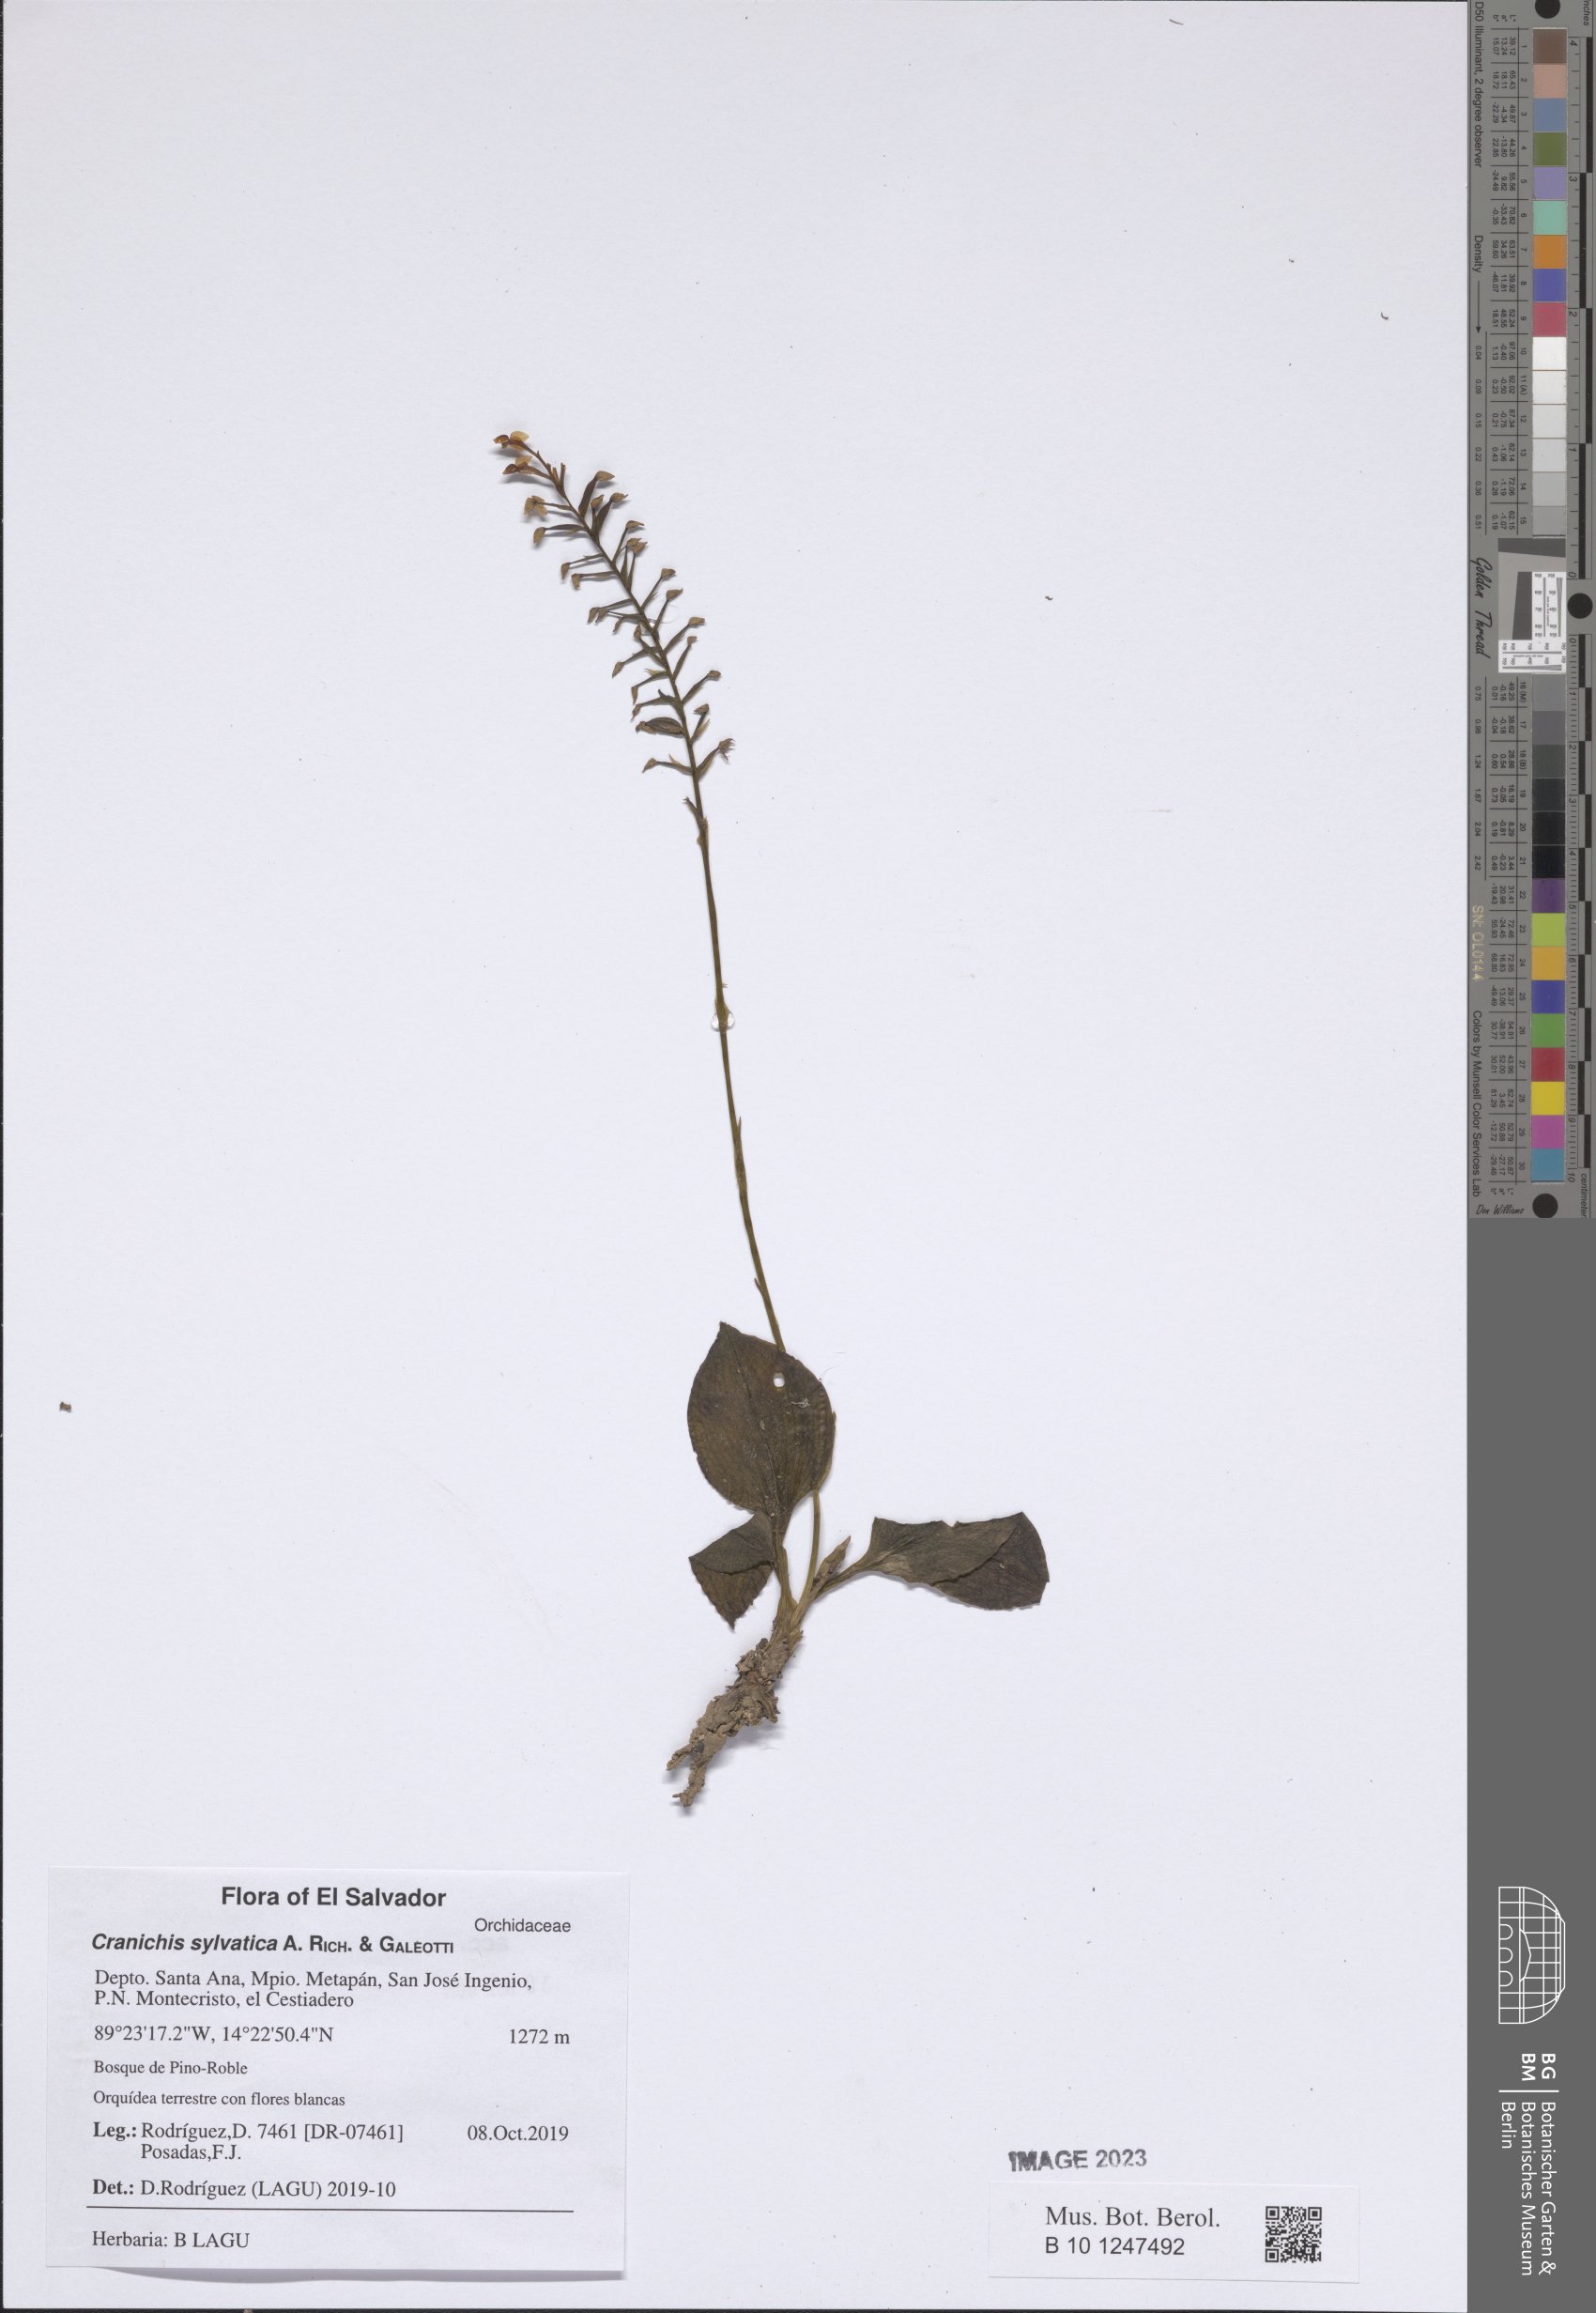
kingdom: Plantae
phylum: Tracheophyta
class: Liliopsida
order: Asparagales
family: Orchidaceae
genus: Cranichis
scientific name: Cranichis sylvatica
